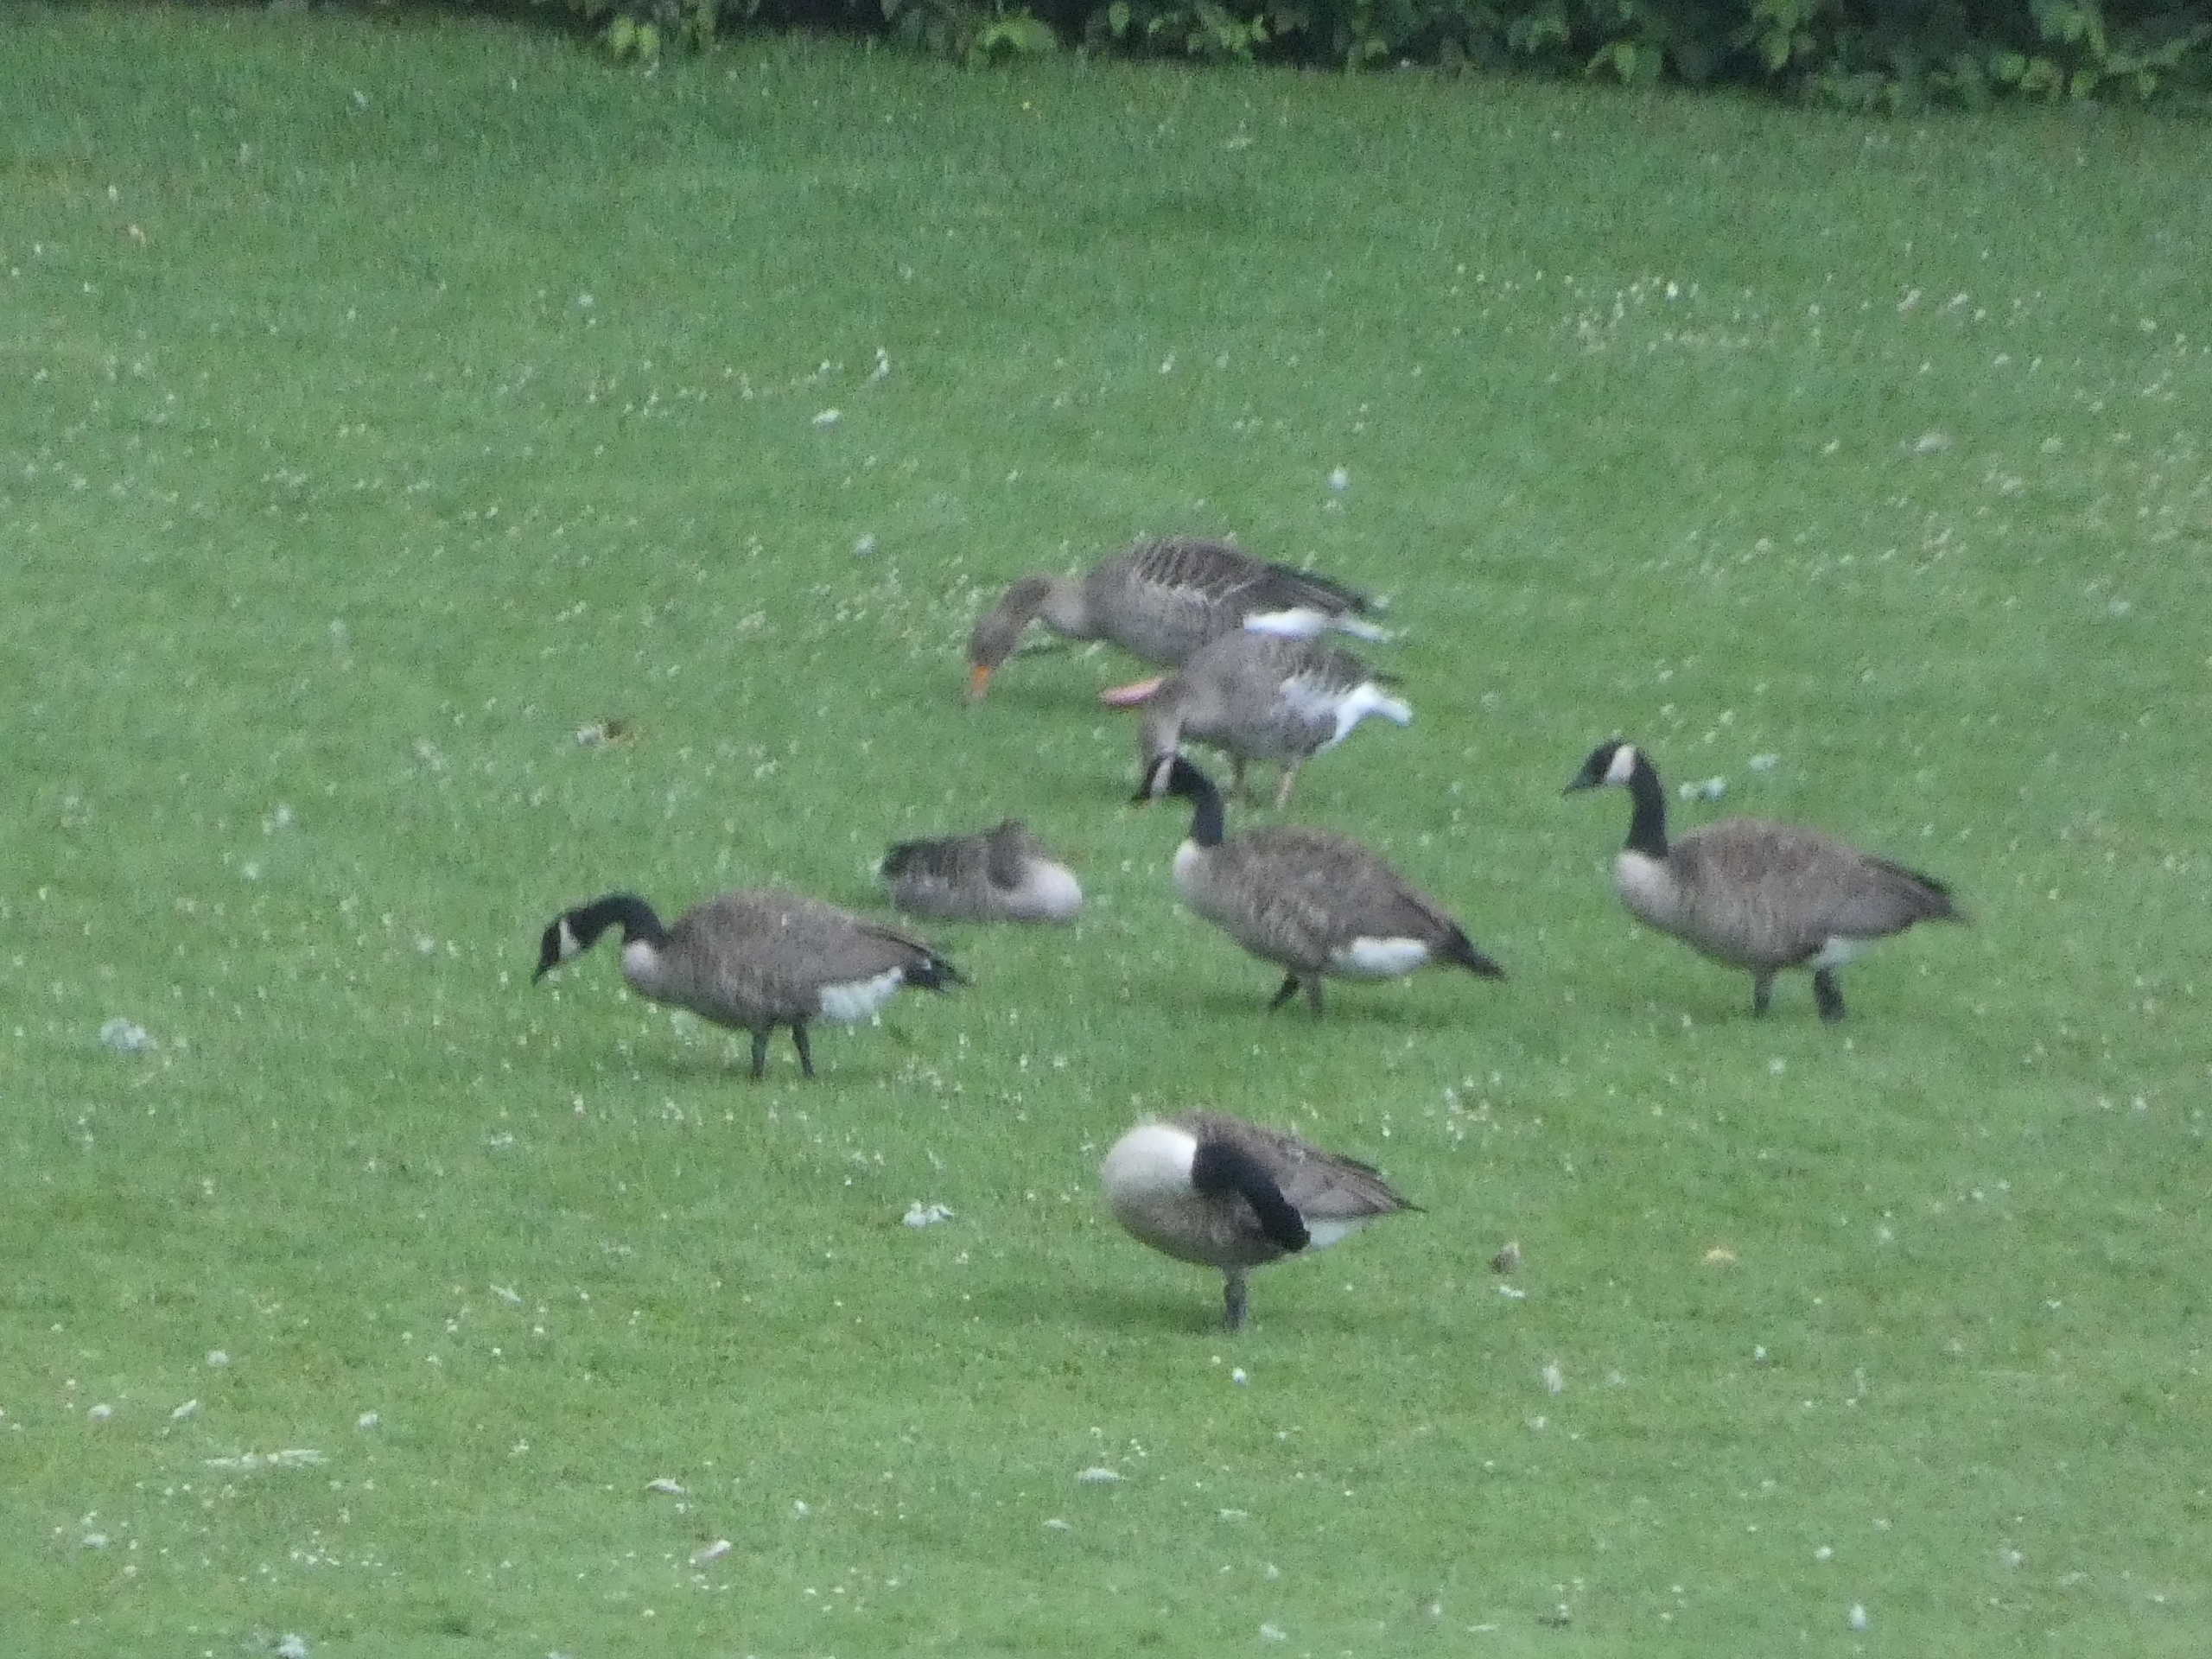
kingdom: Animalia
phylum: Chordata
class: Aves
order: Anseriformes
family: Anatidae
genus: Branta
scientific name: Branta canadensis
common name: Canadagås
